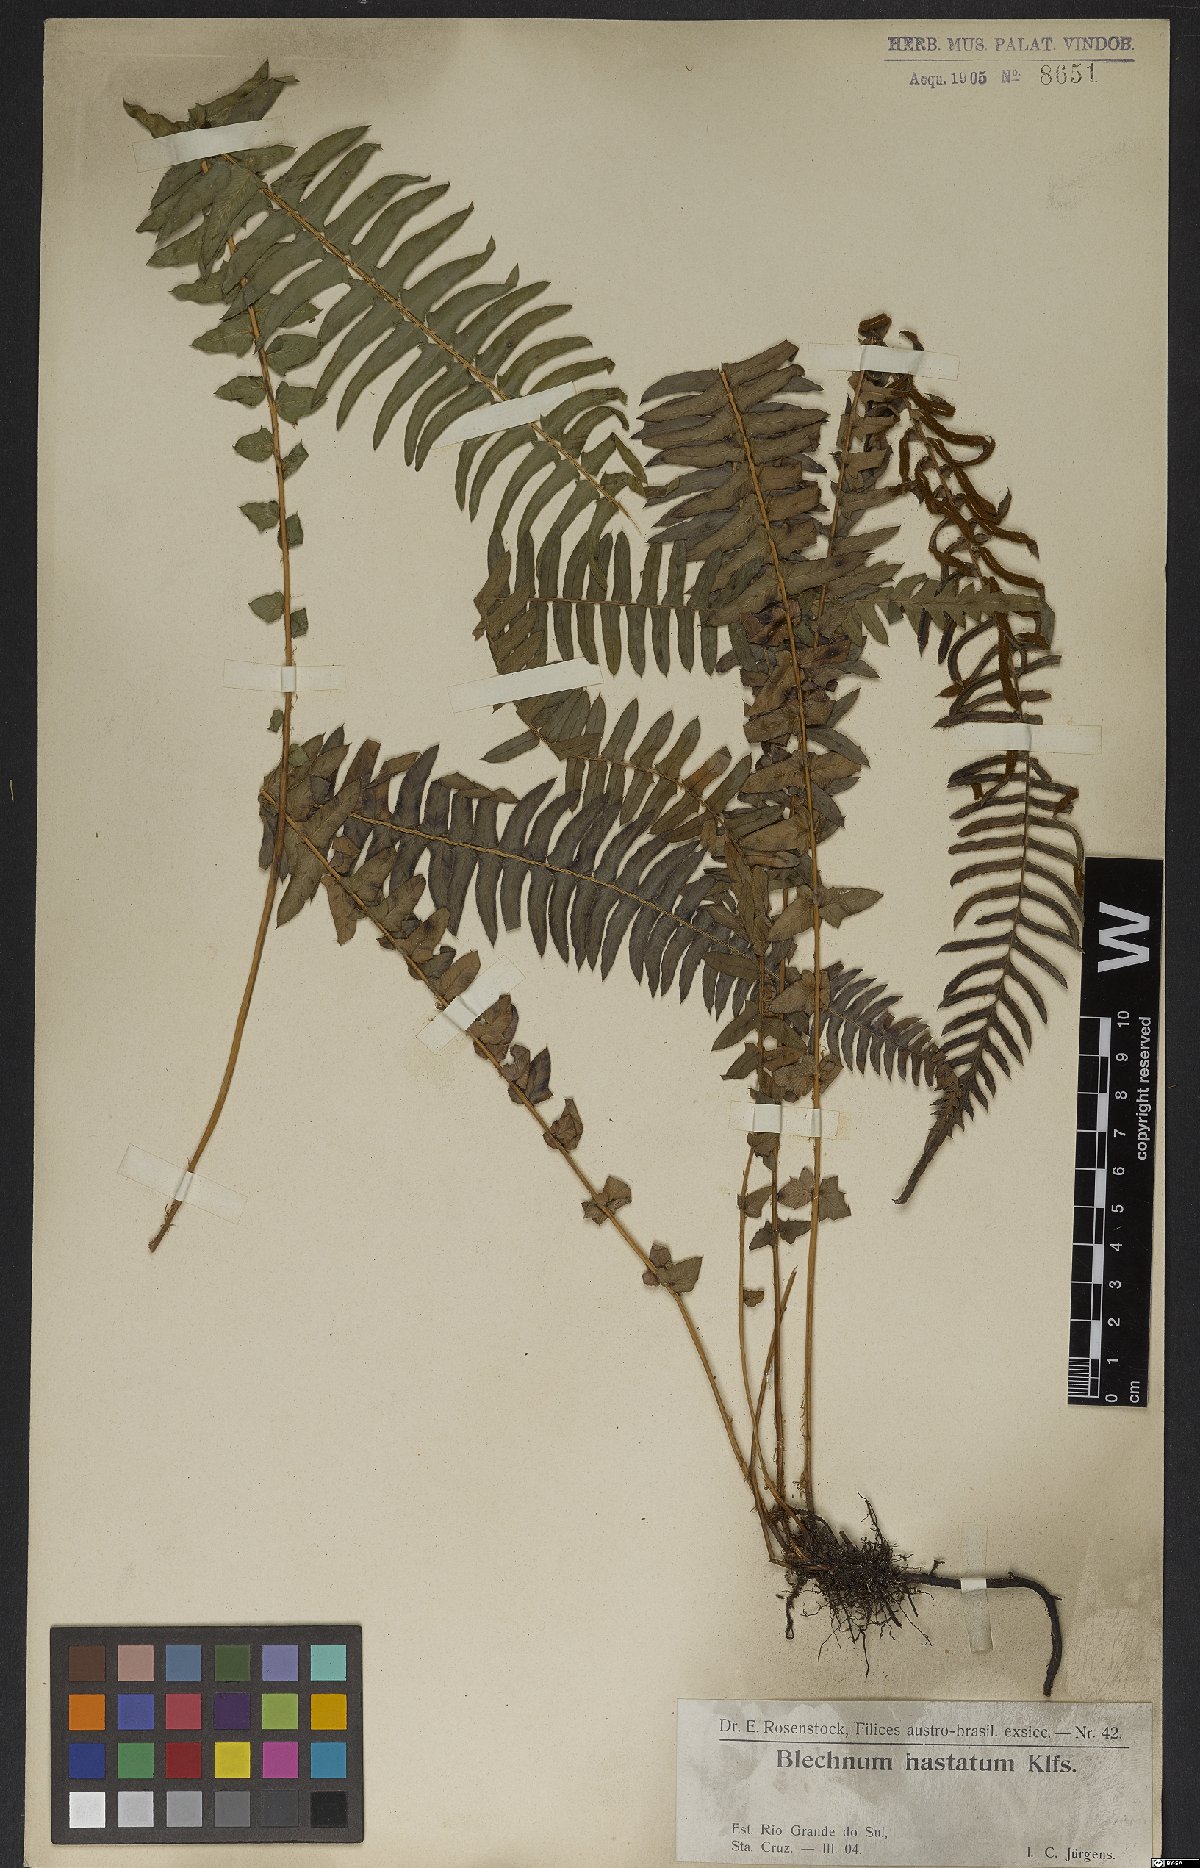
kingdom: Plantae
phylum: Tracheophyta
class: Polypodiopsida
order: Polypodiales
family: Blechnaceae
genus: Blechnum
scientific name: Blechnum auriculatum
